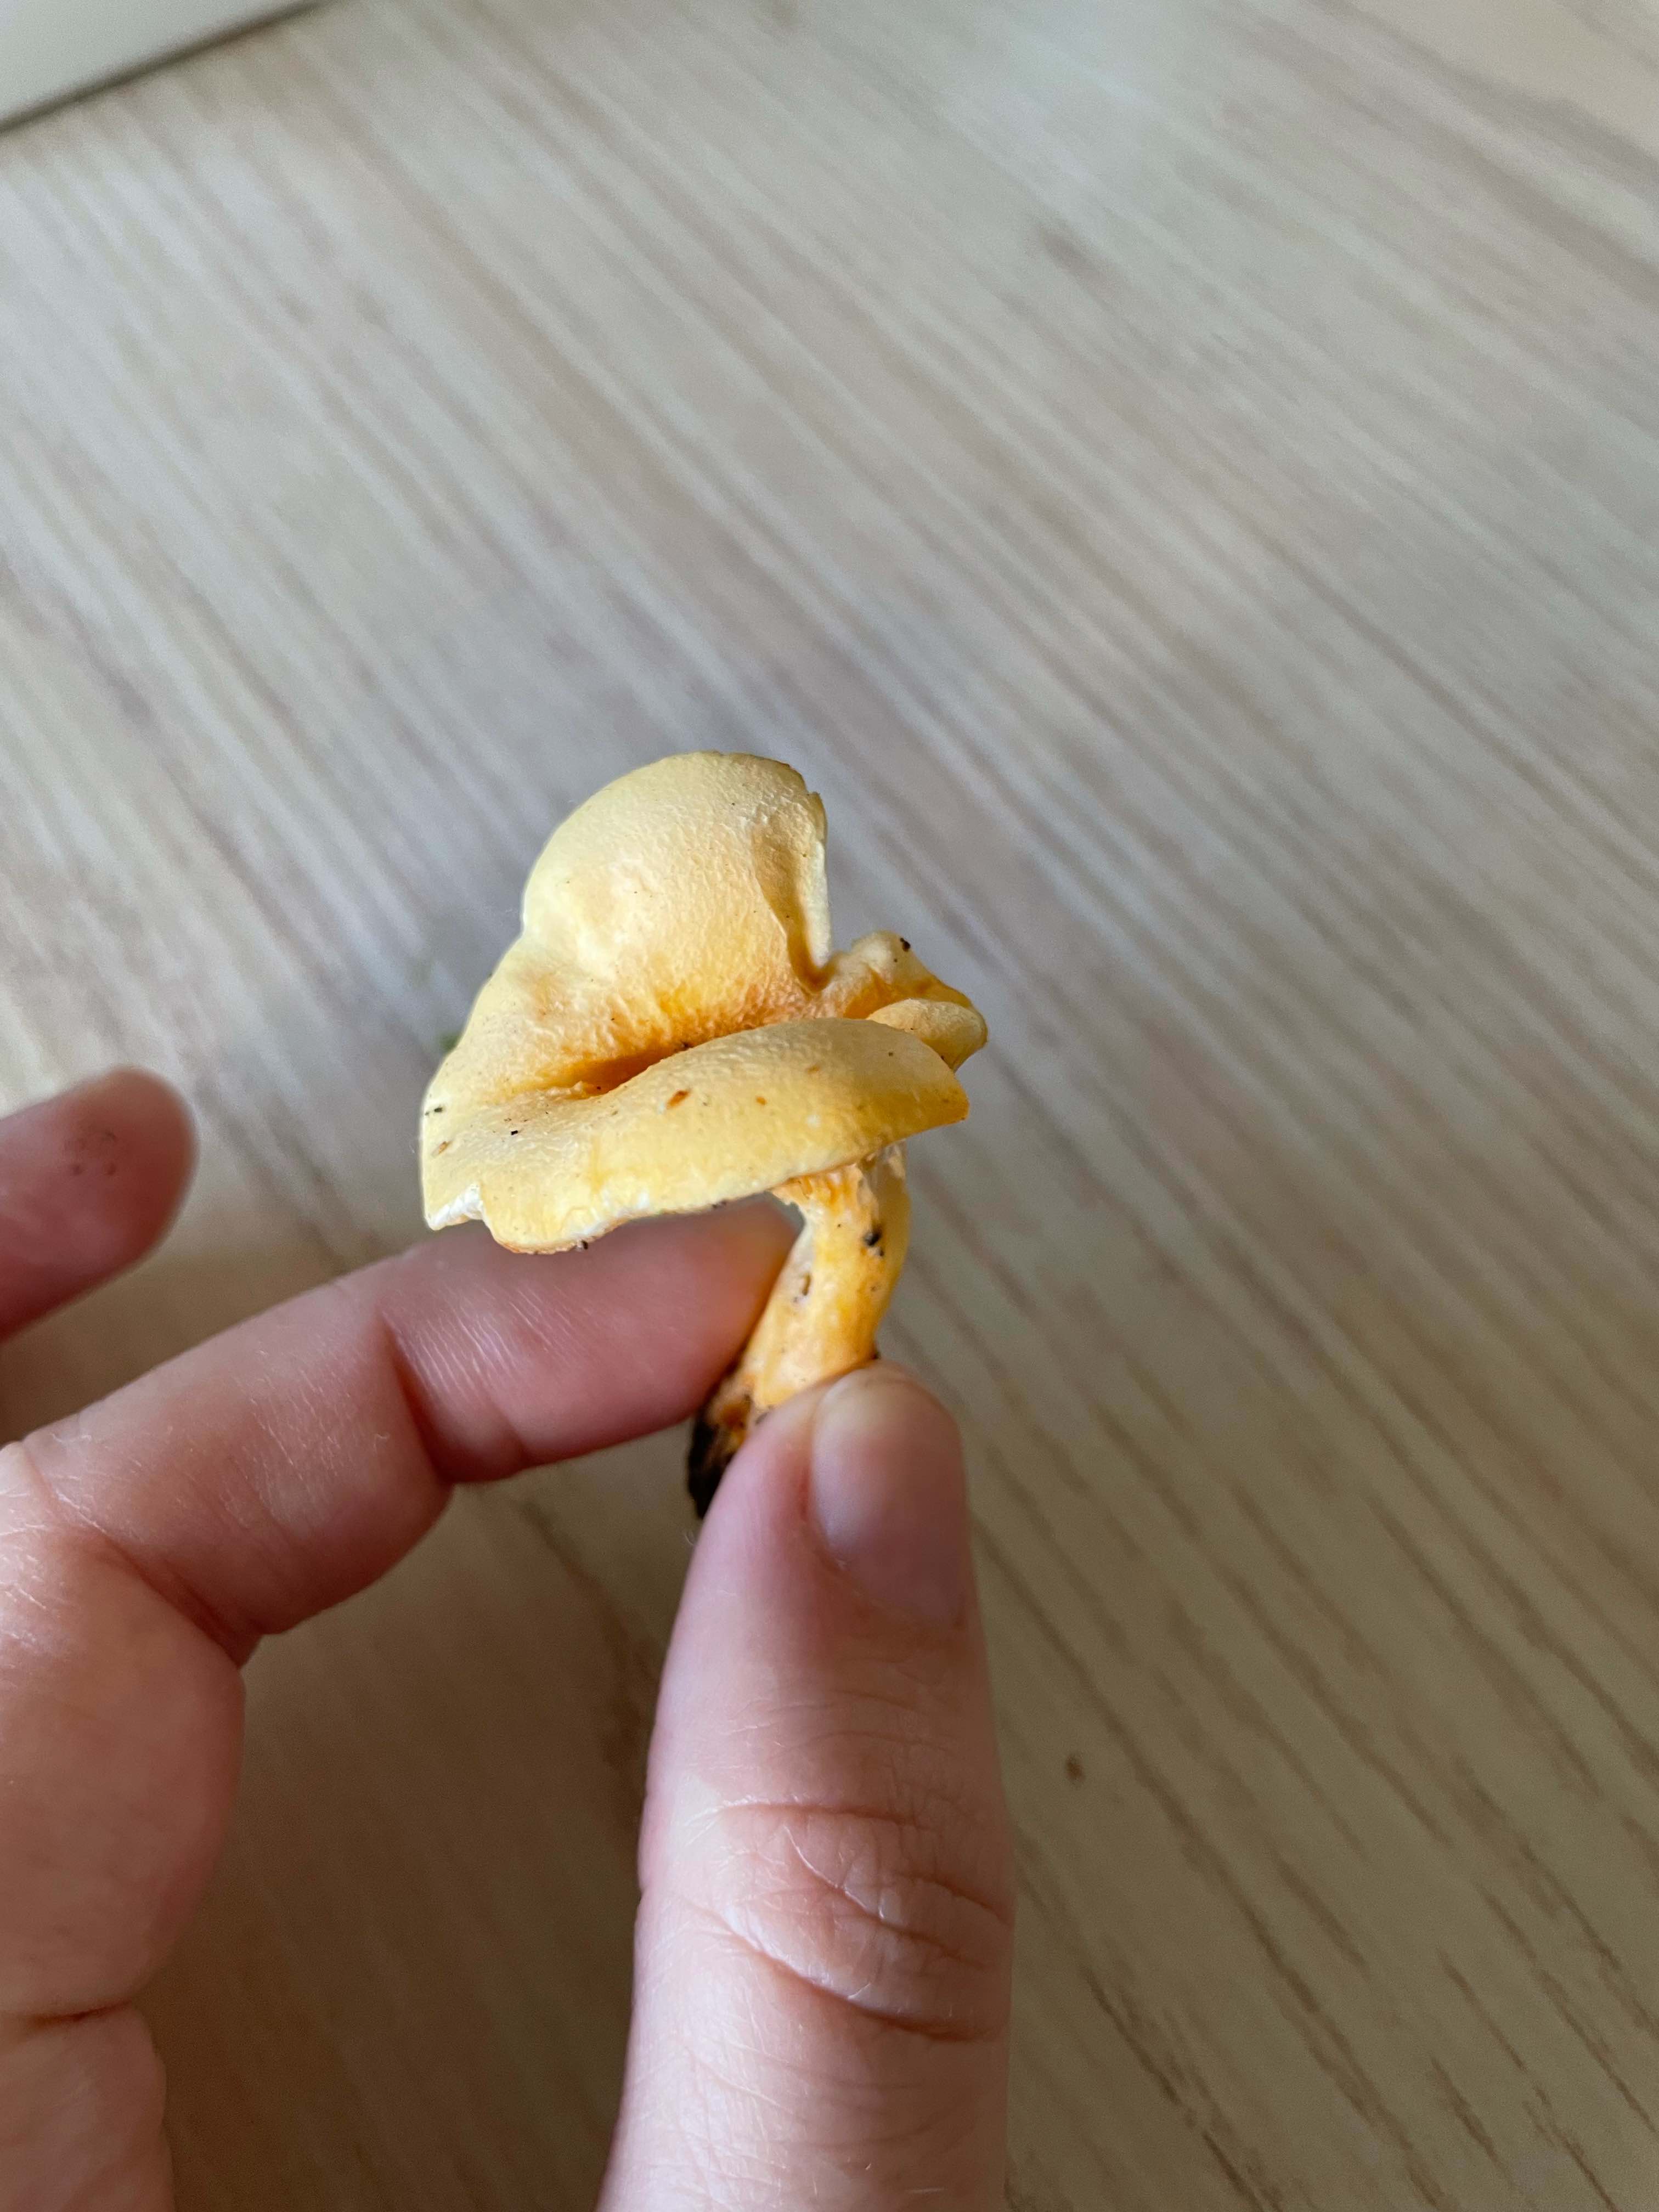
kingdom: Fungi
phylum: Basidiomycota
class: Agaricomycetes
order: Boletales
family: Hygrophoropsidaceae
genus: Hygrophoropsis
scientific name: Hygrophoropsis
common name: orangekantarel
